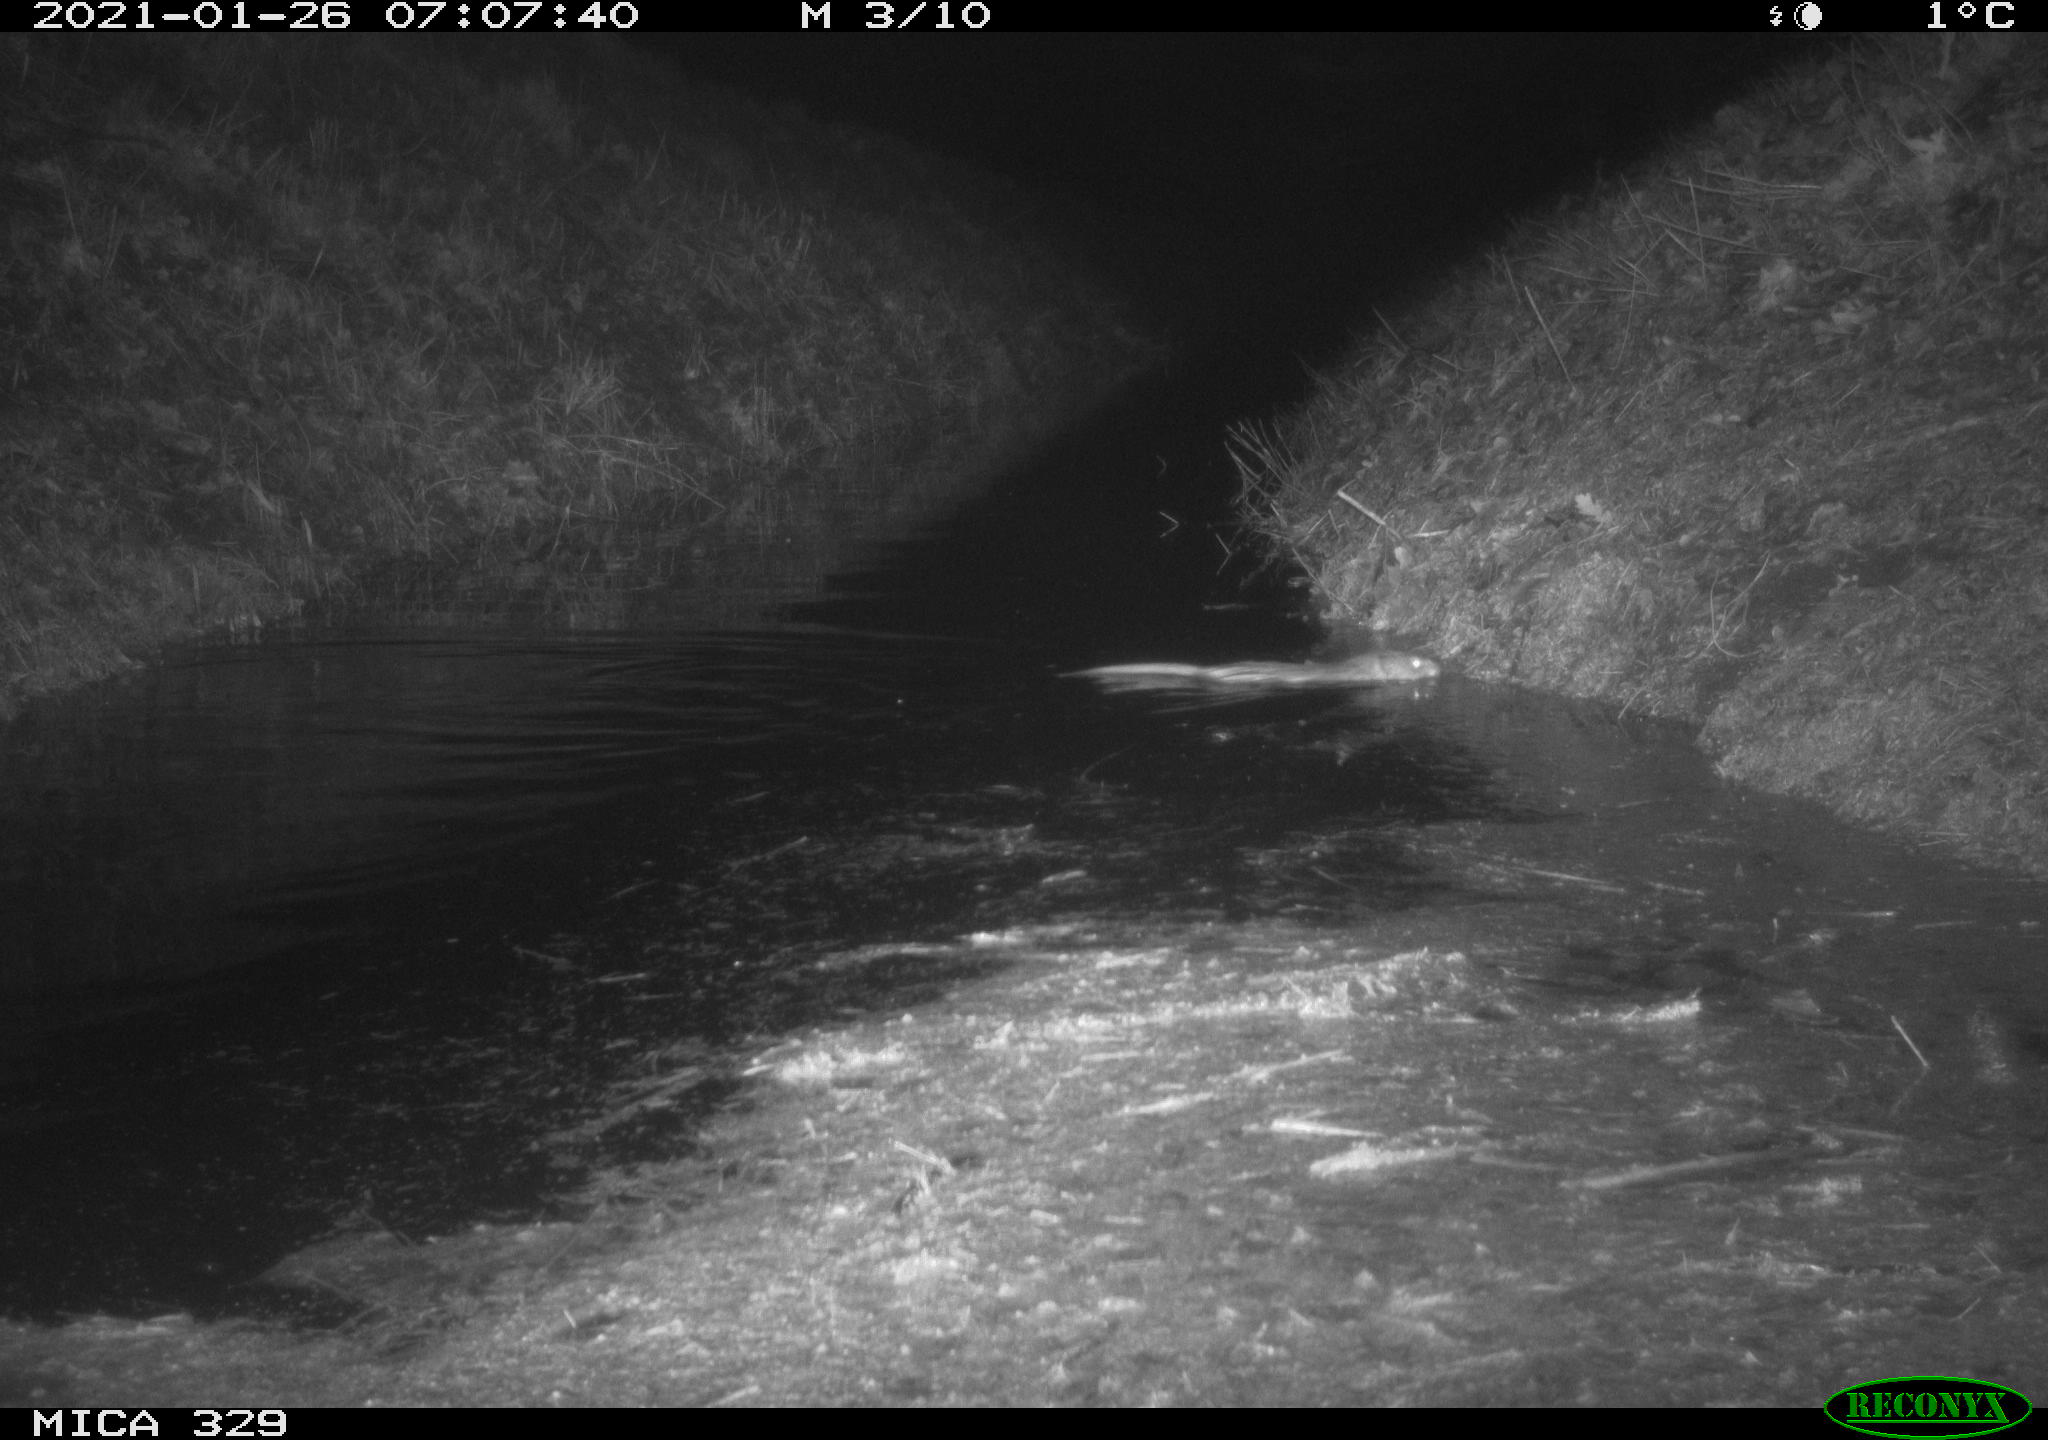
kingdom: Animalia
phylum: Chordata
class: Mammalia
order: Rodentia
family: Cricetidae
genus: Ondatra
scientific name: Ondatra zibethicus
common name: Muskrat
